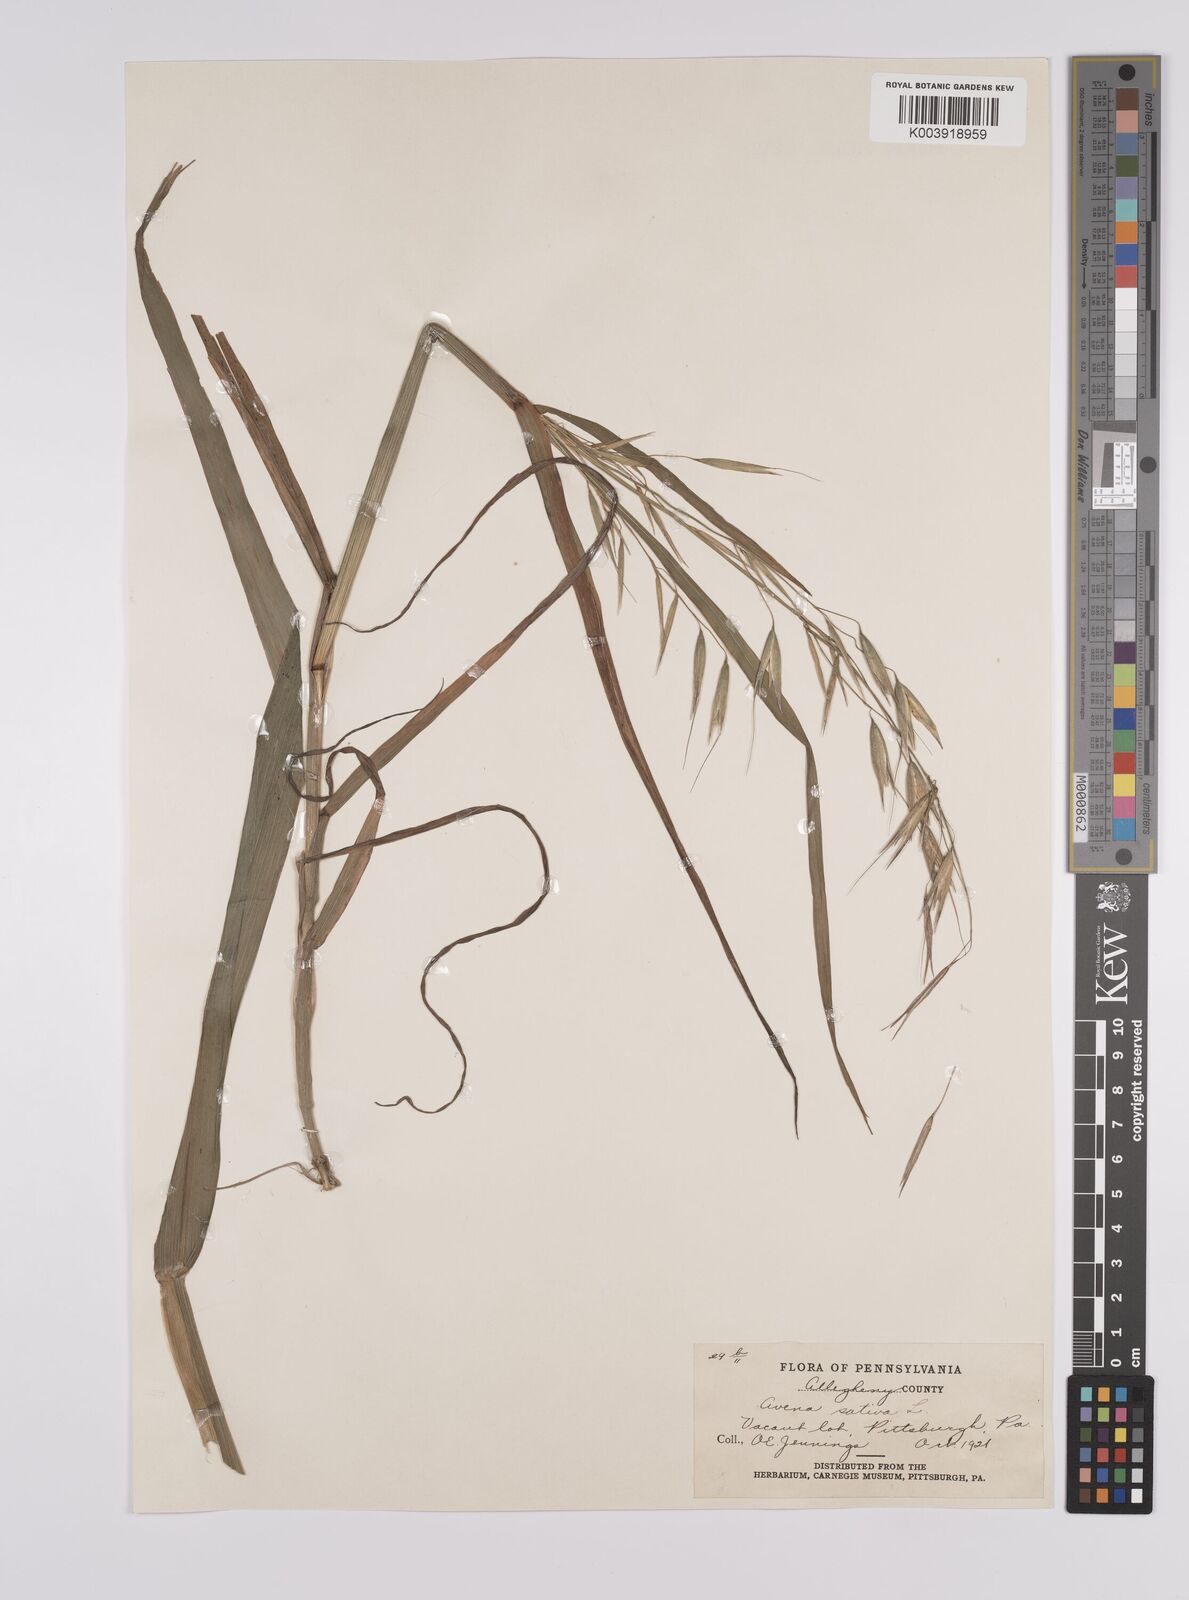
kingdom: Plantae
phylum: Tracheophyta
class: Liliopsida
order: Poales
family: Poaceae
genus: Avena
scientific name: Avena sativa
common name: Oat
